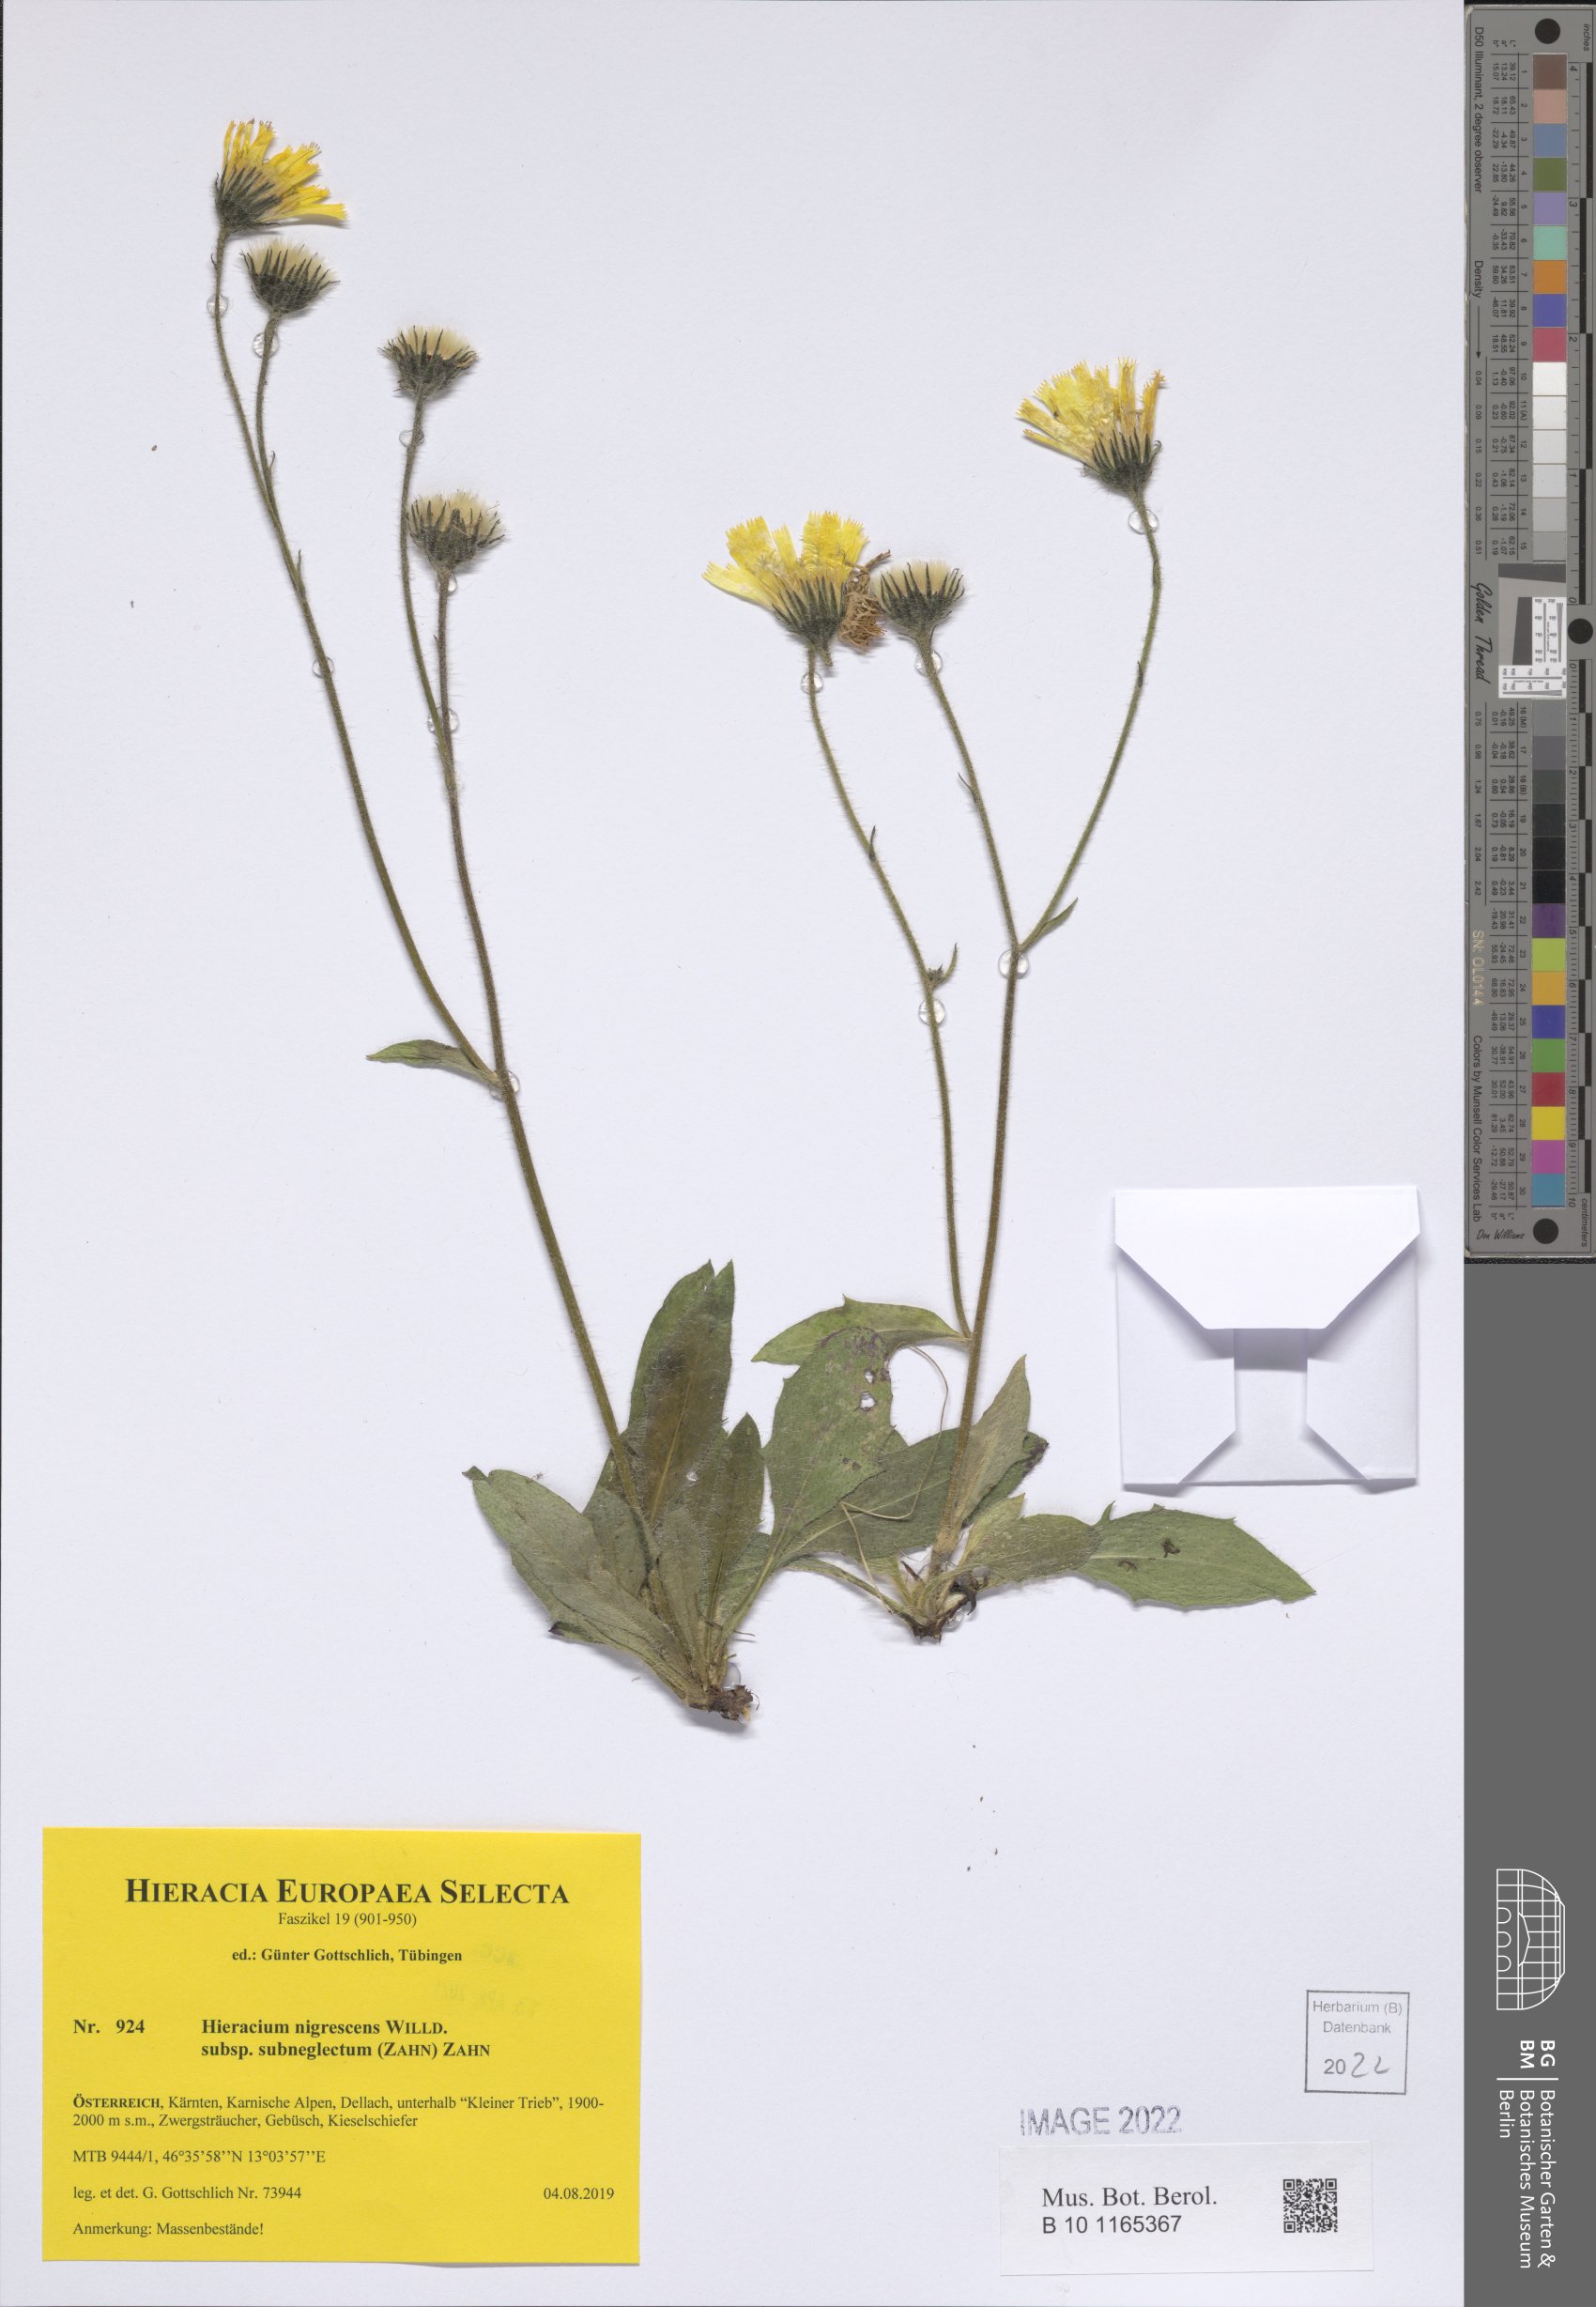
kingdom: Plantae
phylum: Tracheophyta
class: Magnoliopsida
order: Asterales
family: Asteraceae
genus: Hieracium
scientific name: Hieracium nigrescens
